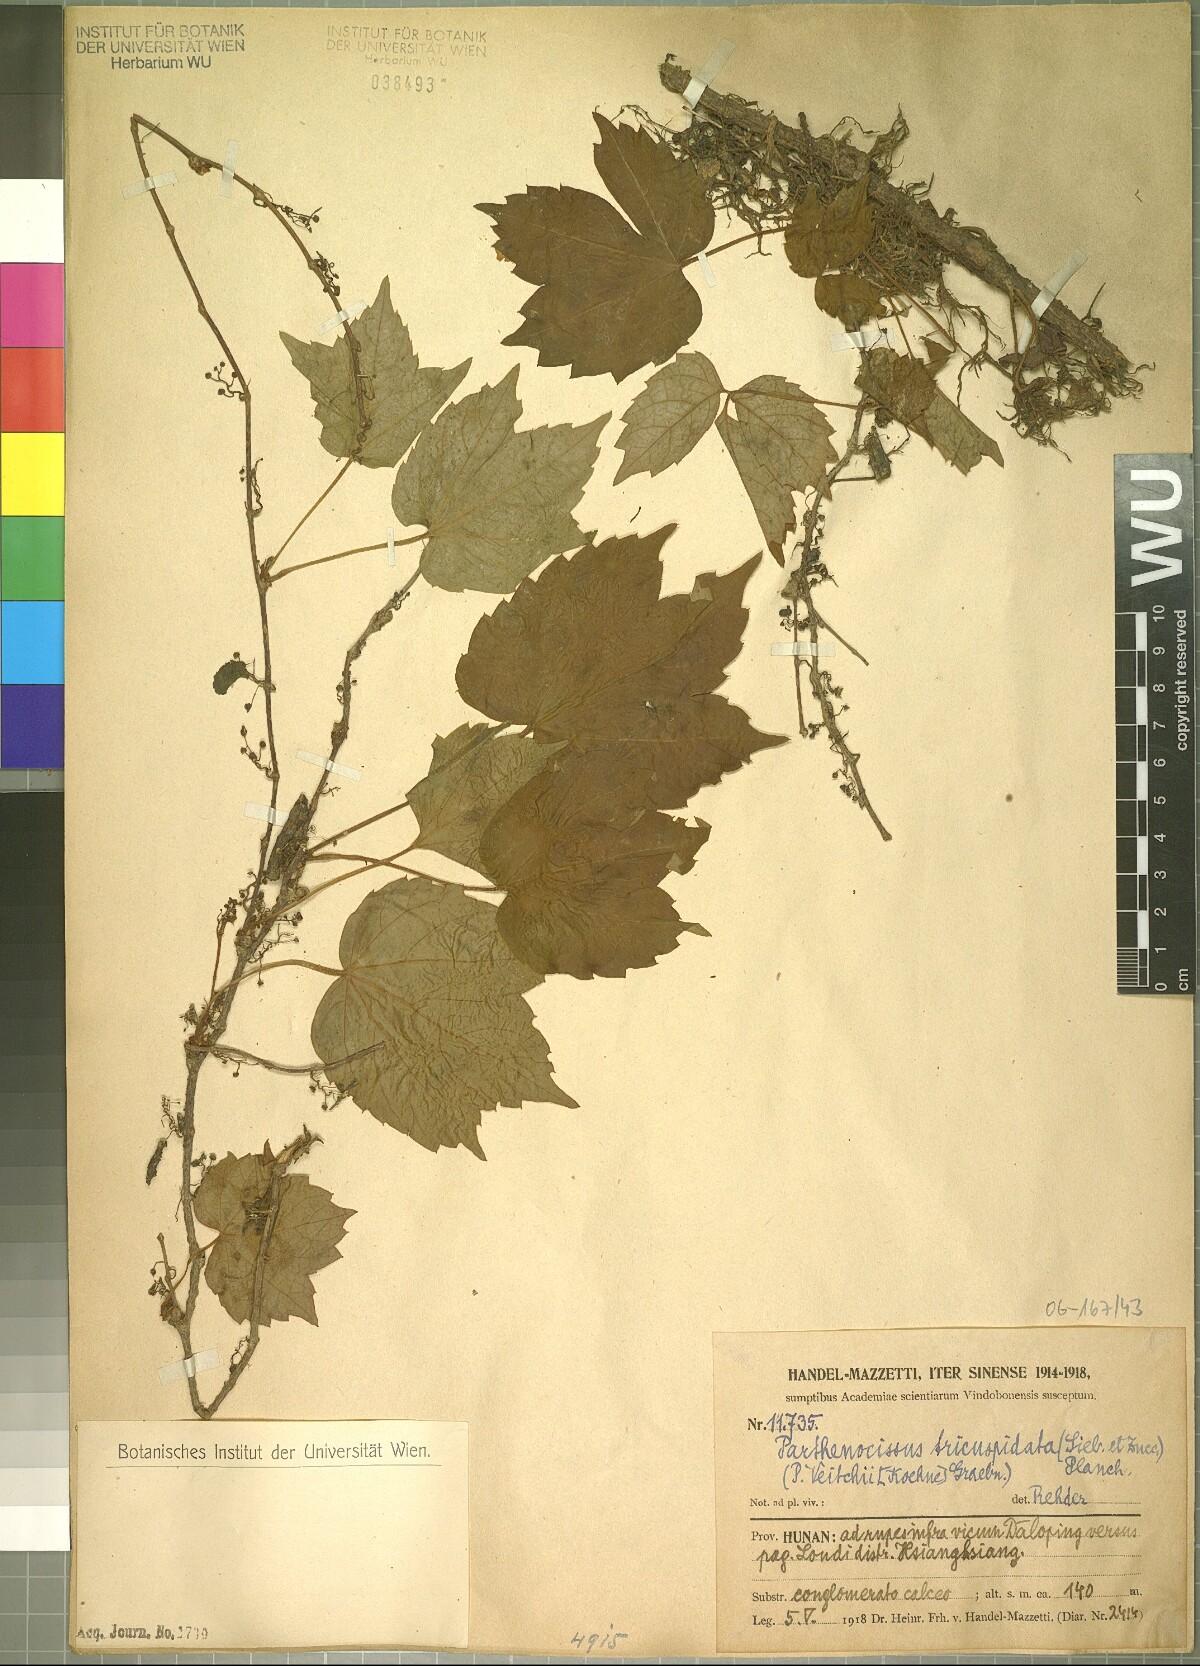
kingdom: Plantae
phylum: Tracheophyta
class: Magnoliopsida
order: Vitales
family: Vitaceae
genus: Parthenocissus
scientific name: Parthenocissus tricuspidata
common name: Boston ivy
